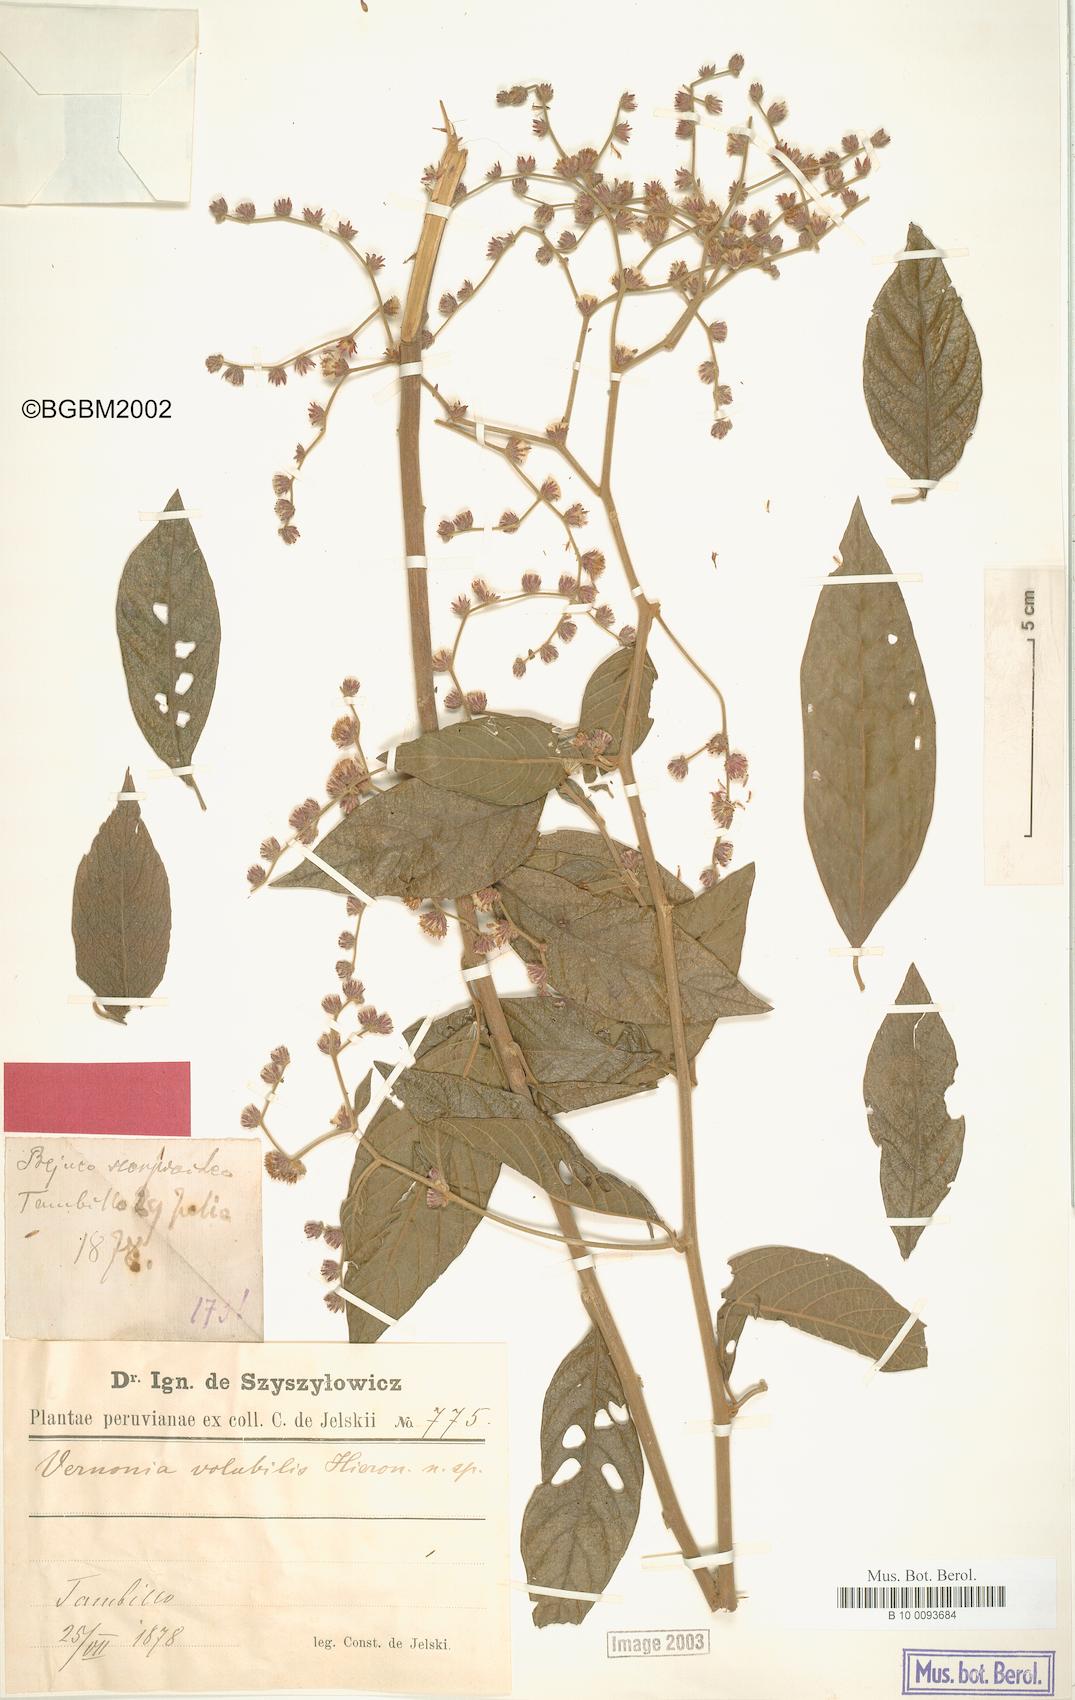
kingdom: Plantae
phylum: Tracheophyta
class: Magnoliopsida
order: Asterales
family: Asteraceae
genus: Lepidaploa
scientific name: Lepidaploa canescens
